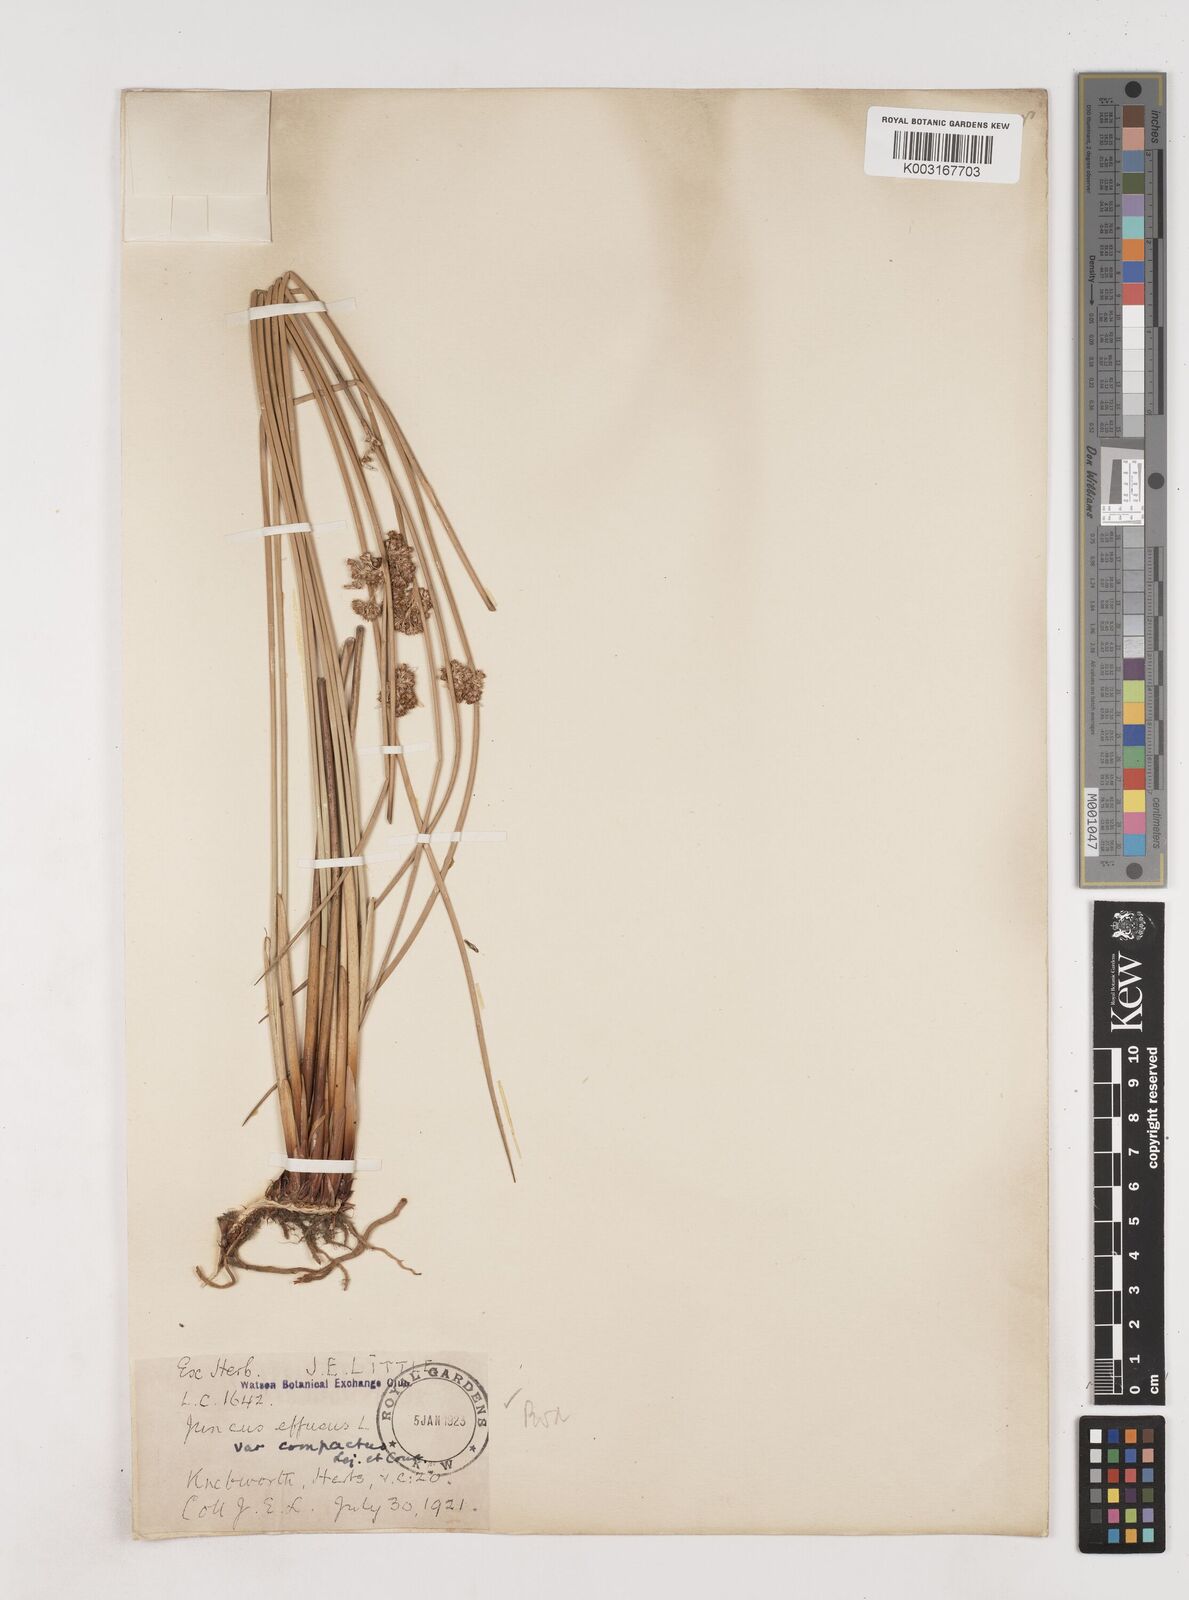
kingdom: Plantae
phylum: Tracheophyta
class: Liliopsida
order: Poales
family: Juncaceae
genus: Juncus
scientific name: Juncus effusus
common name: Soft rush
